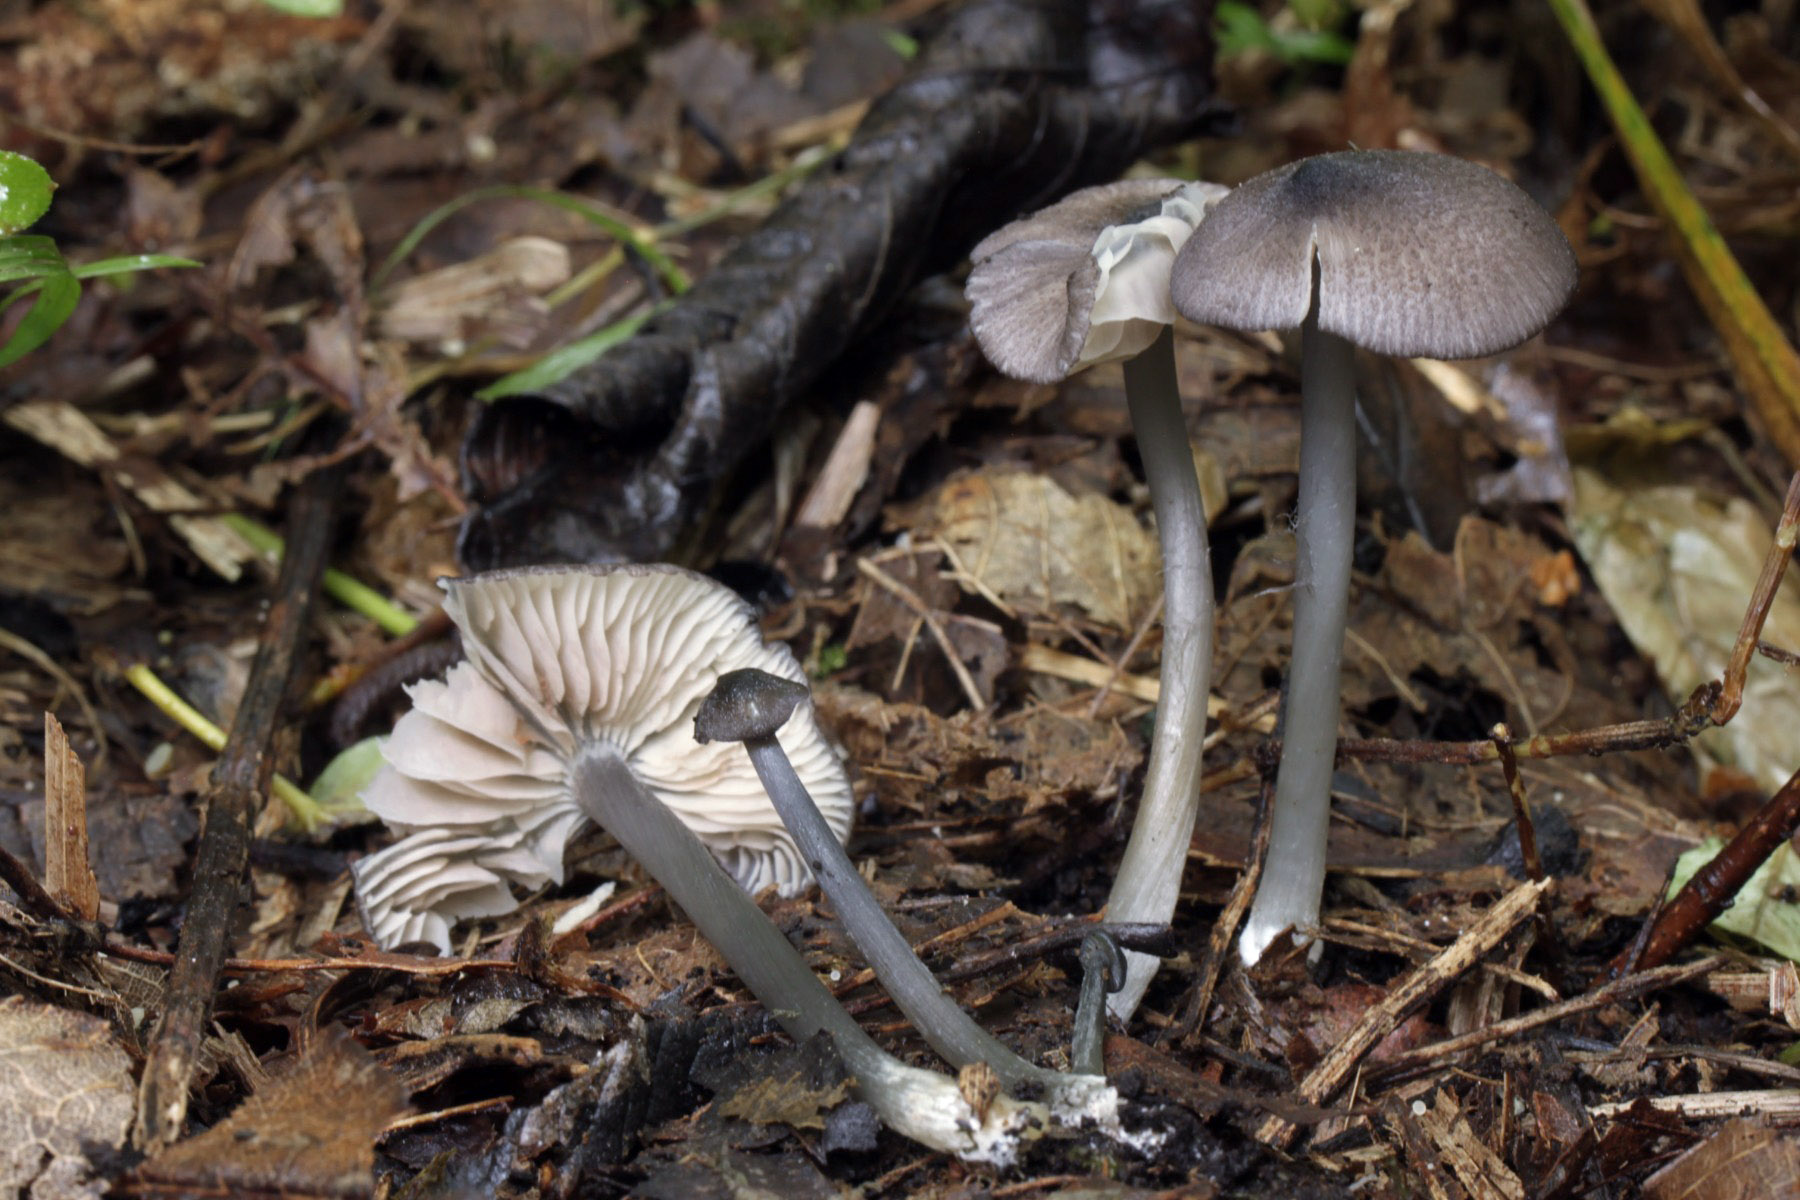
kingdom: Fungi
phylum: Basidiomycota
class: Agaricomycetes
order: Agaricales
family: Entolomataceae
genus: Entoloma
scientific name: Entoloma phaeodiscum
